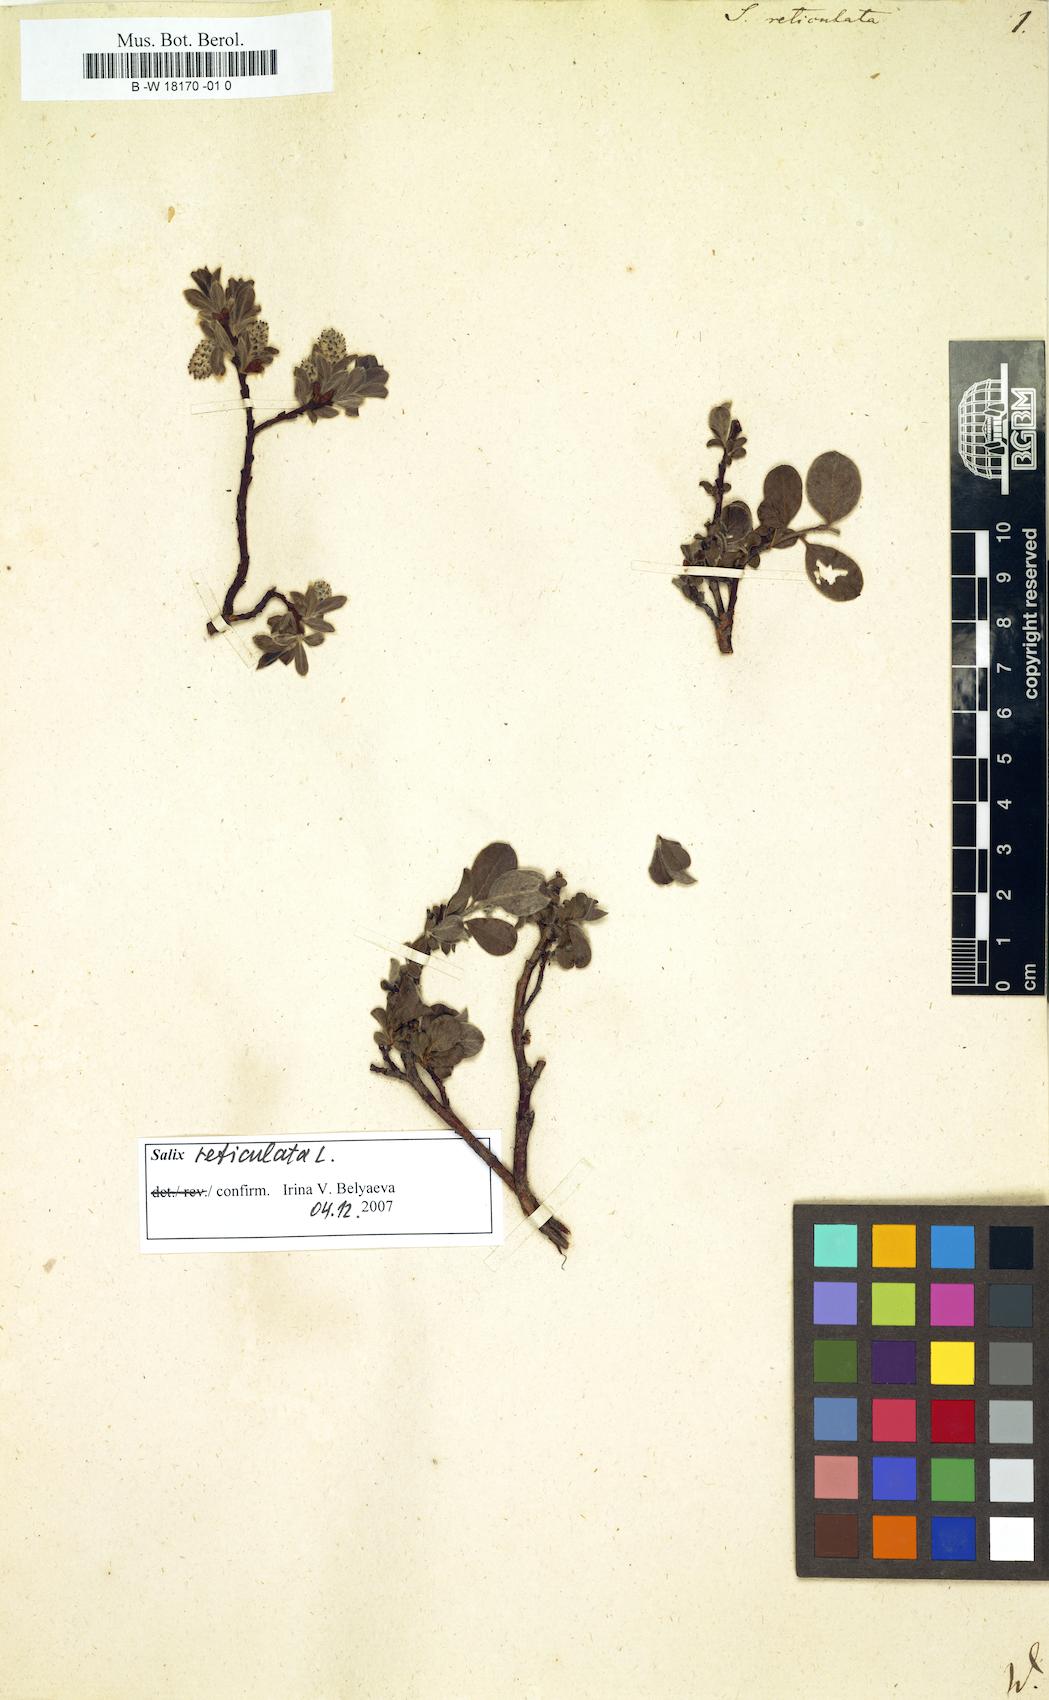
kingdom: Plantae
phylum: Tracheophyta
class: Magnoliopsida
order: Malpighiales
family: Salicaceae
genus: Salix
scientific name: Salix reticulata
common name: Net-leaved willow
